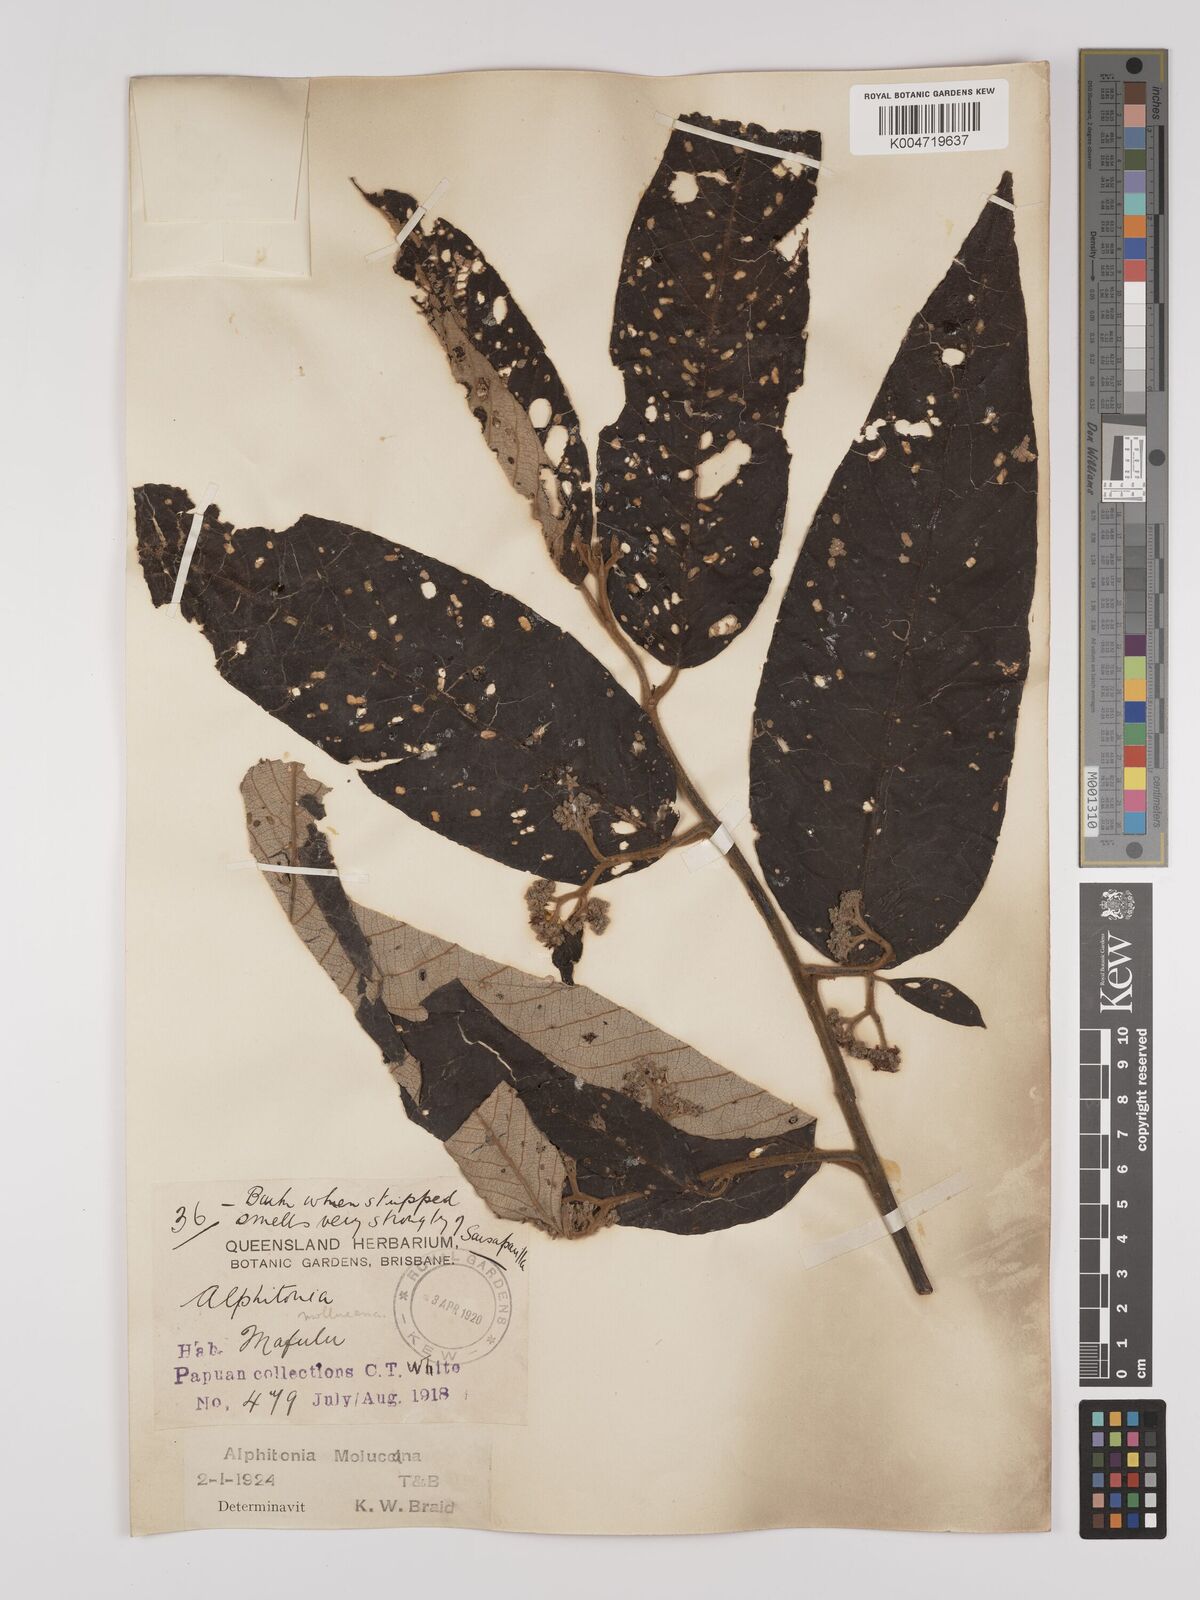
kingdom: Plantae
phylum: Tracheophyta
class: Magnoliopsida
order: Rosales
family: Rhamnaceae
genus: Alphitonia
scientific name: Alphitonia incana
